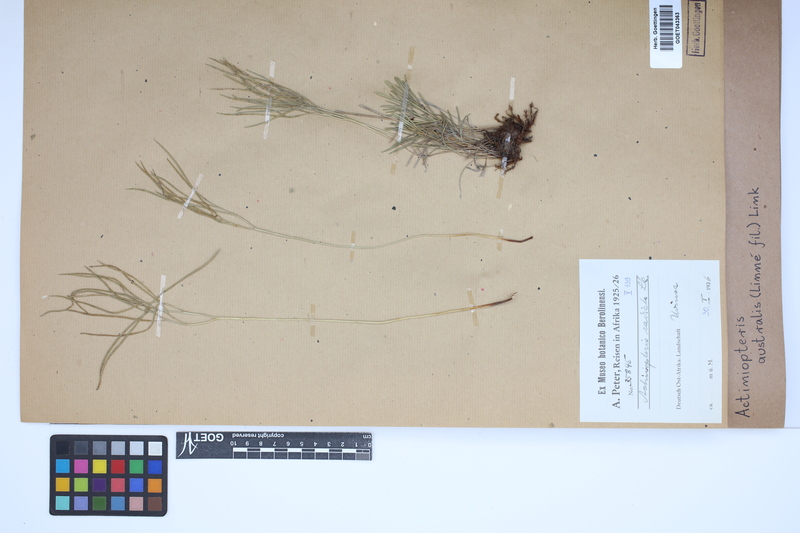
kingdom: Plantae
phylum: Tracheophyta
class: Polypodiopsida
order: Polypodiales
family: Pteridaceae
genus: Actiniopteris
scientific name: Actiniopteris australis
